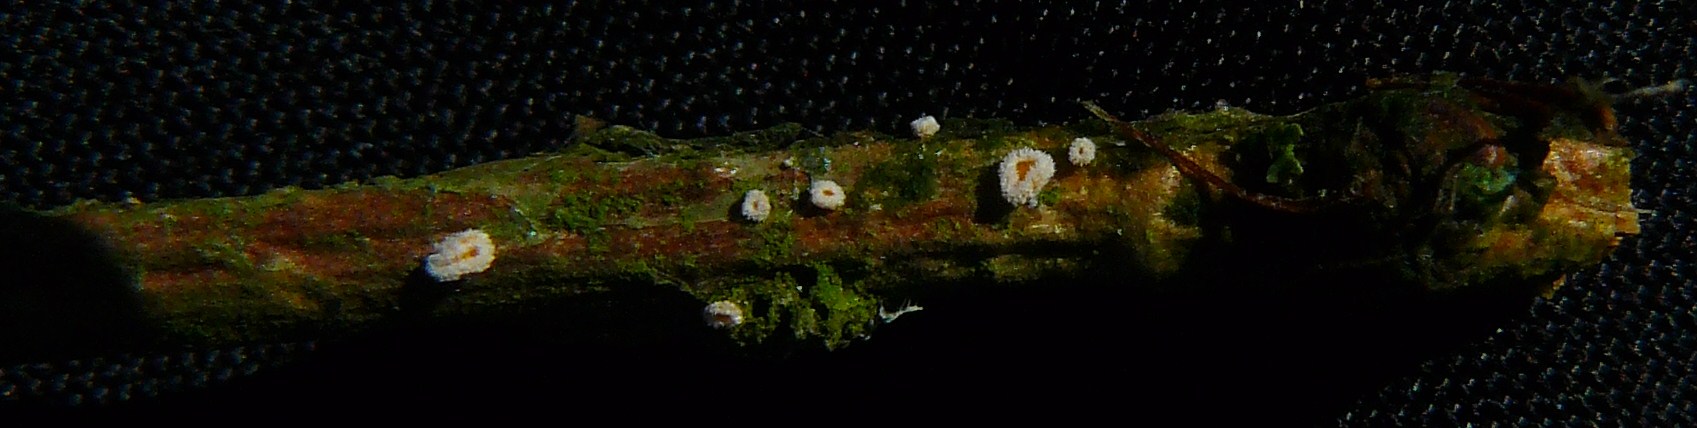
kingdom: Fungi
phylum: Ascomycota
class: Leotiomycetes
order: Helotiales
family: Lachnaceae
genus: Capitotricha
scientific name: Capitotricha bicolor
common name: prægtig frynseskive
